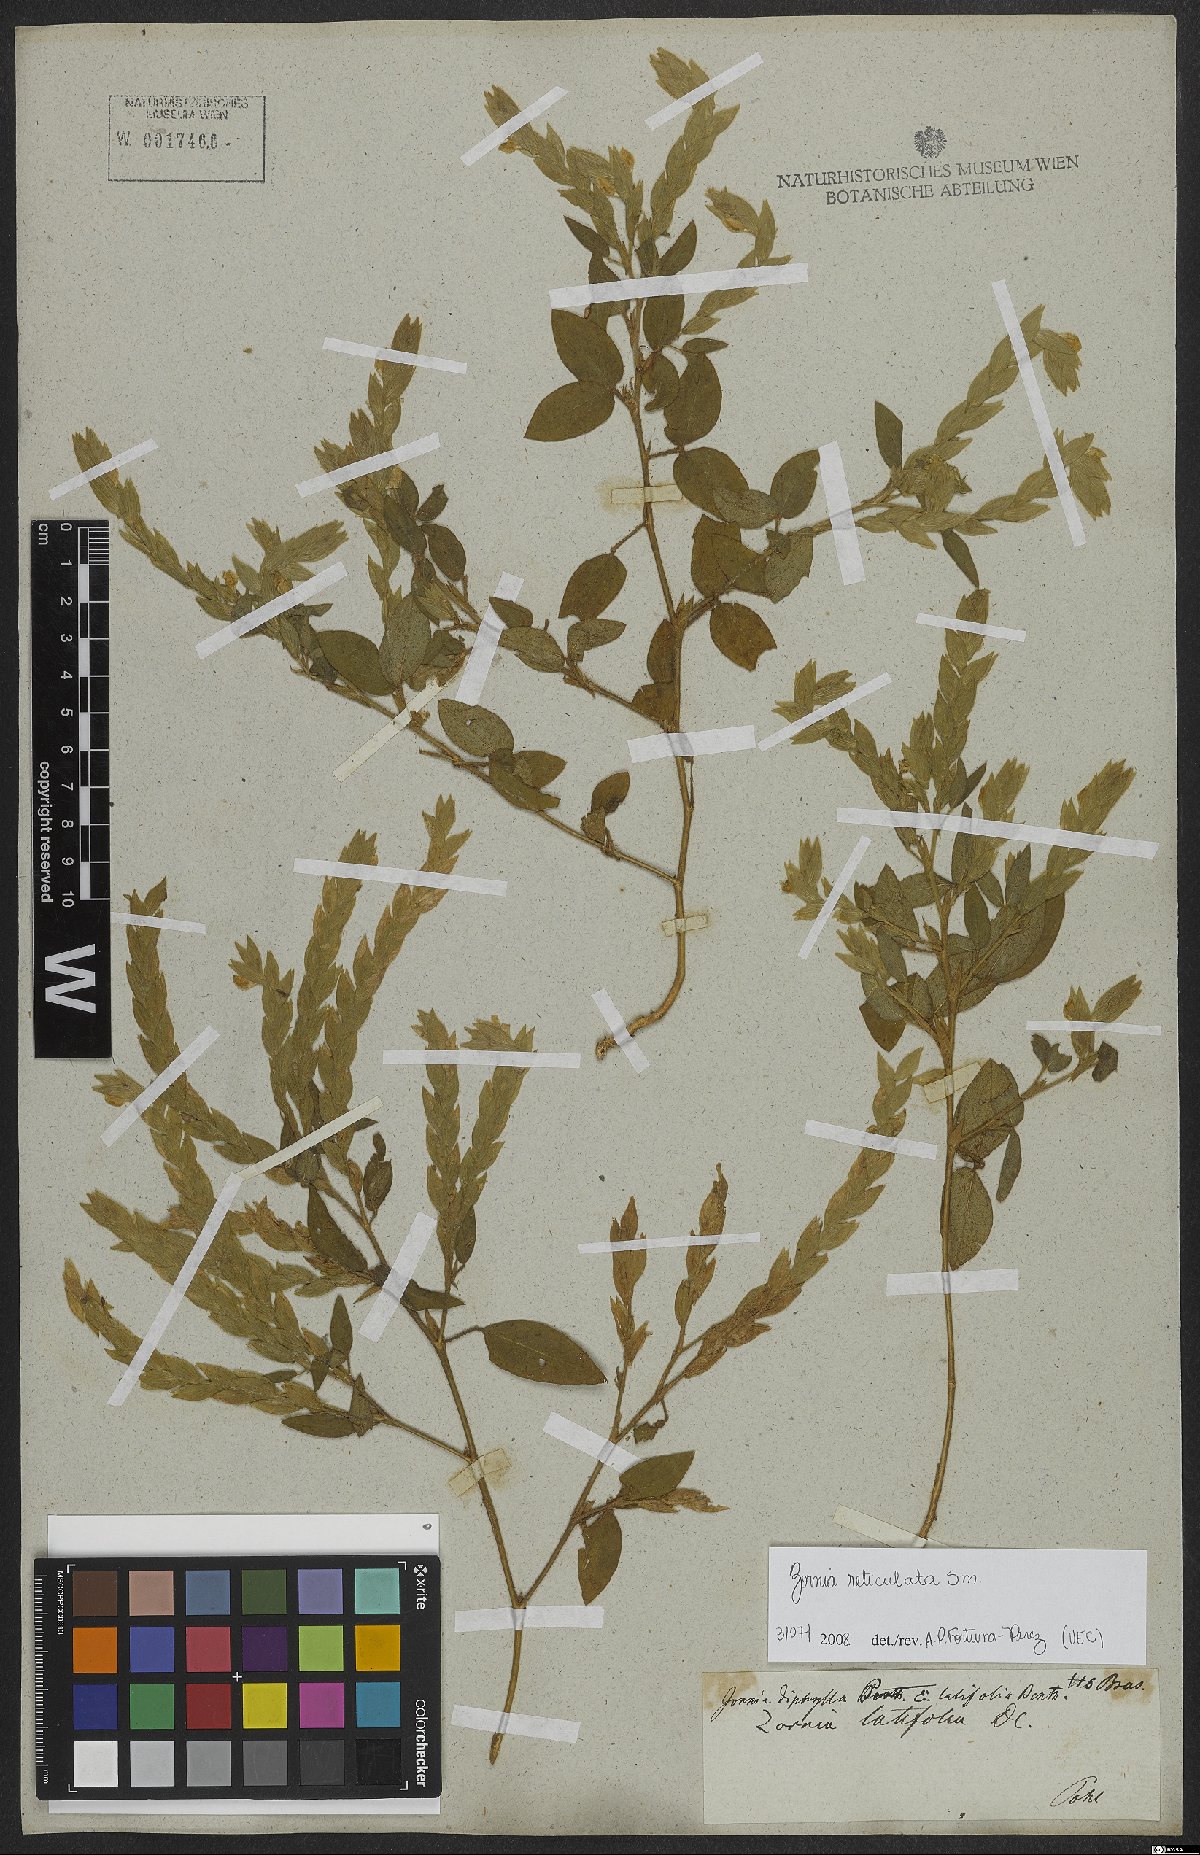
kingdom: Plantae
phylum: Tracheophyta
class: Magnoliopsida
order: Fabales
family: Fabaceae
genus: Zornia
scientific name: Zornia reticulata
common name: Reticulate viperina
